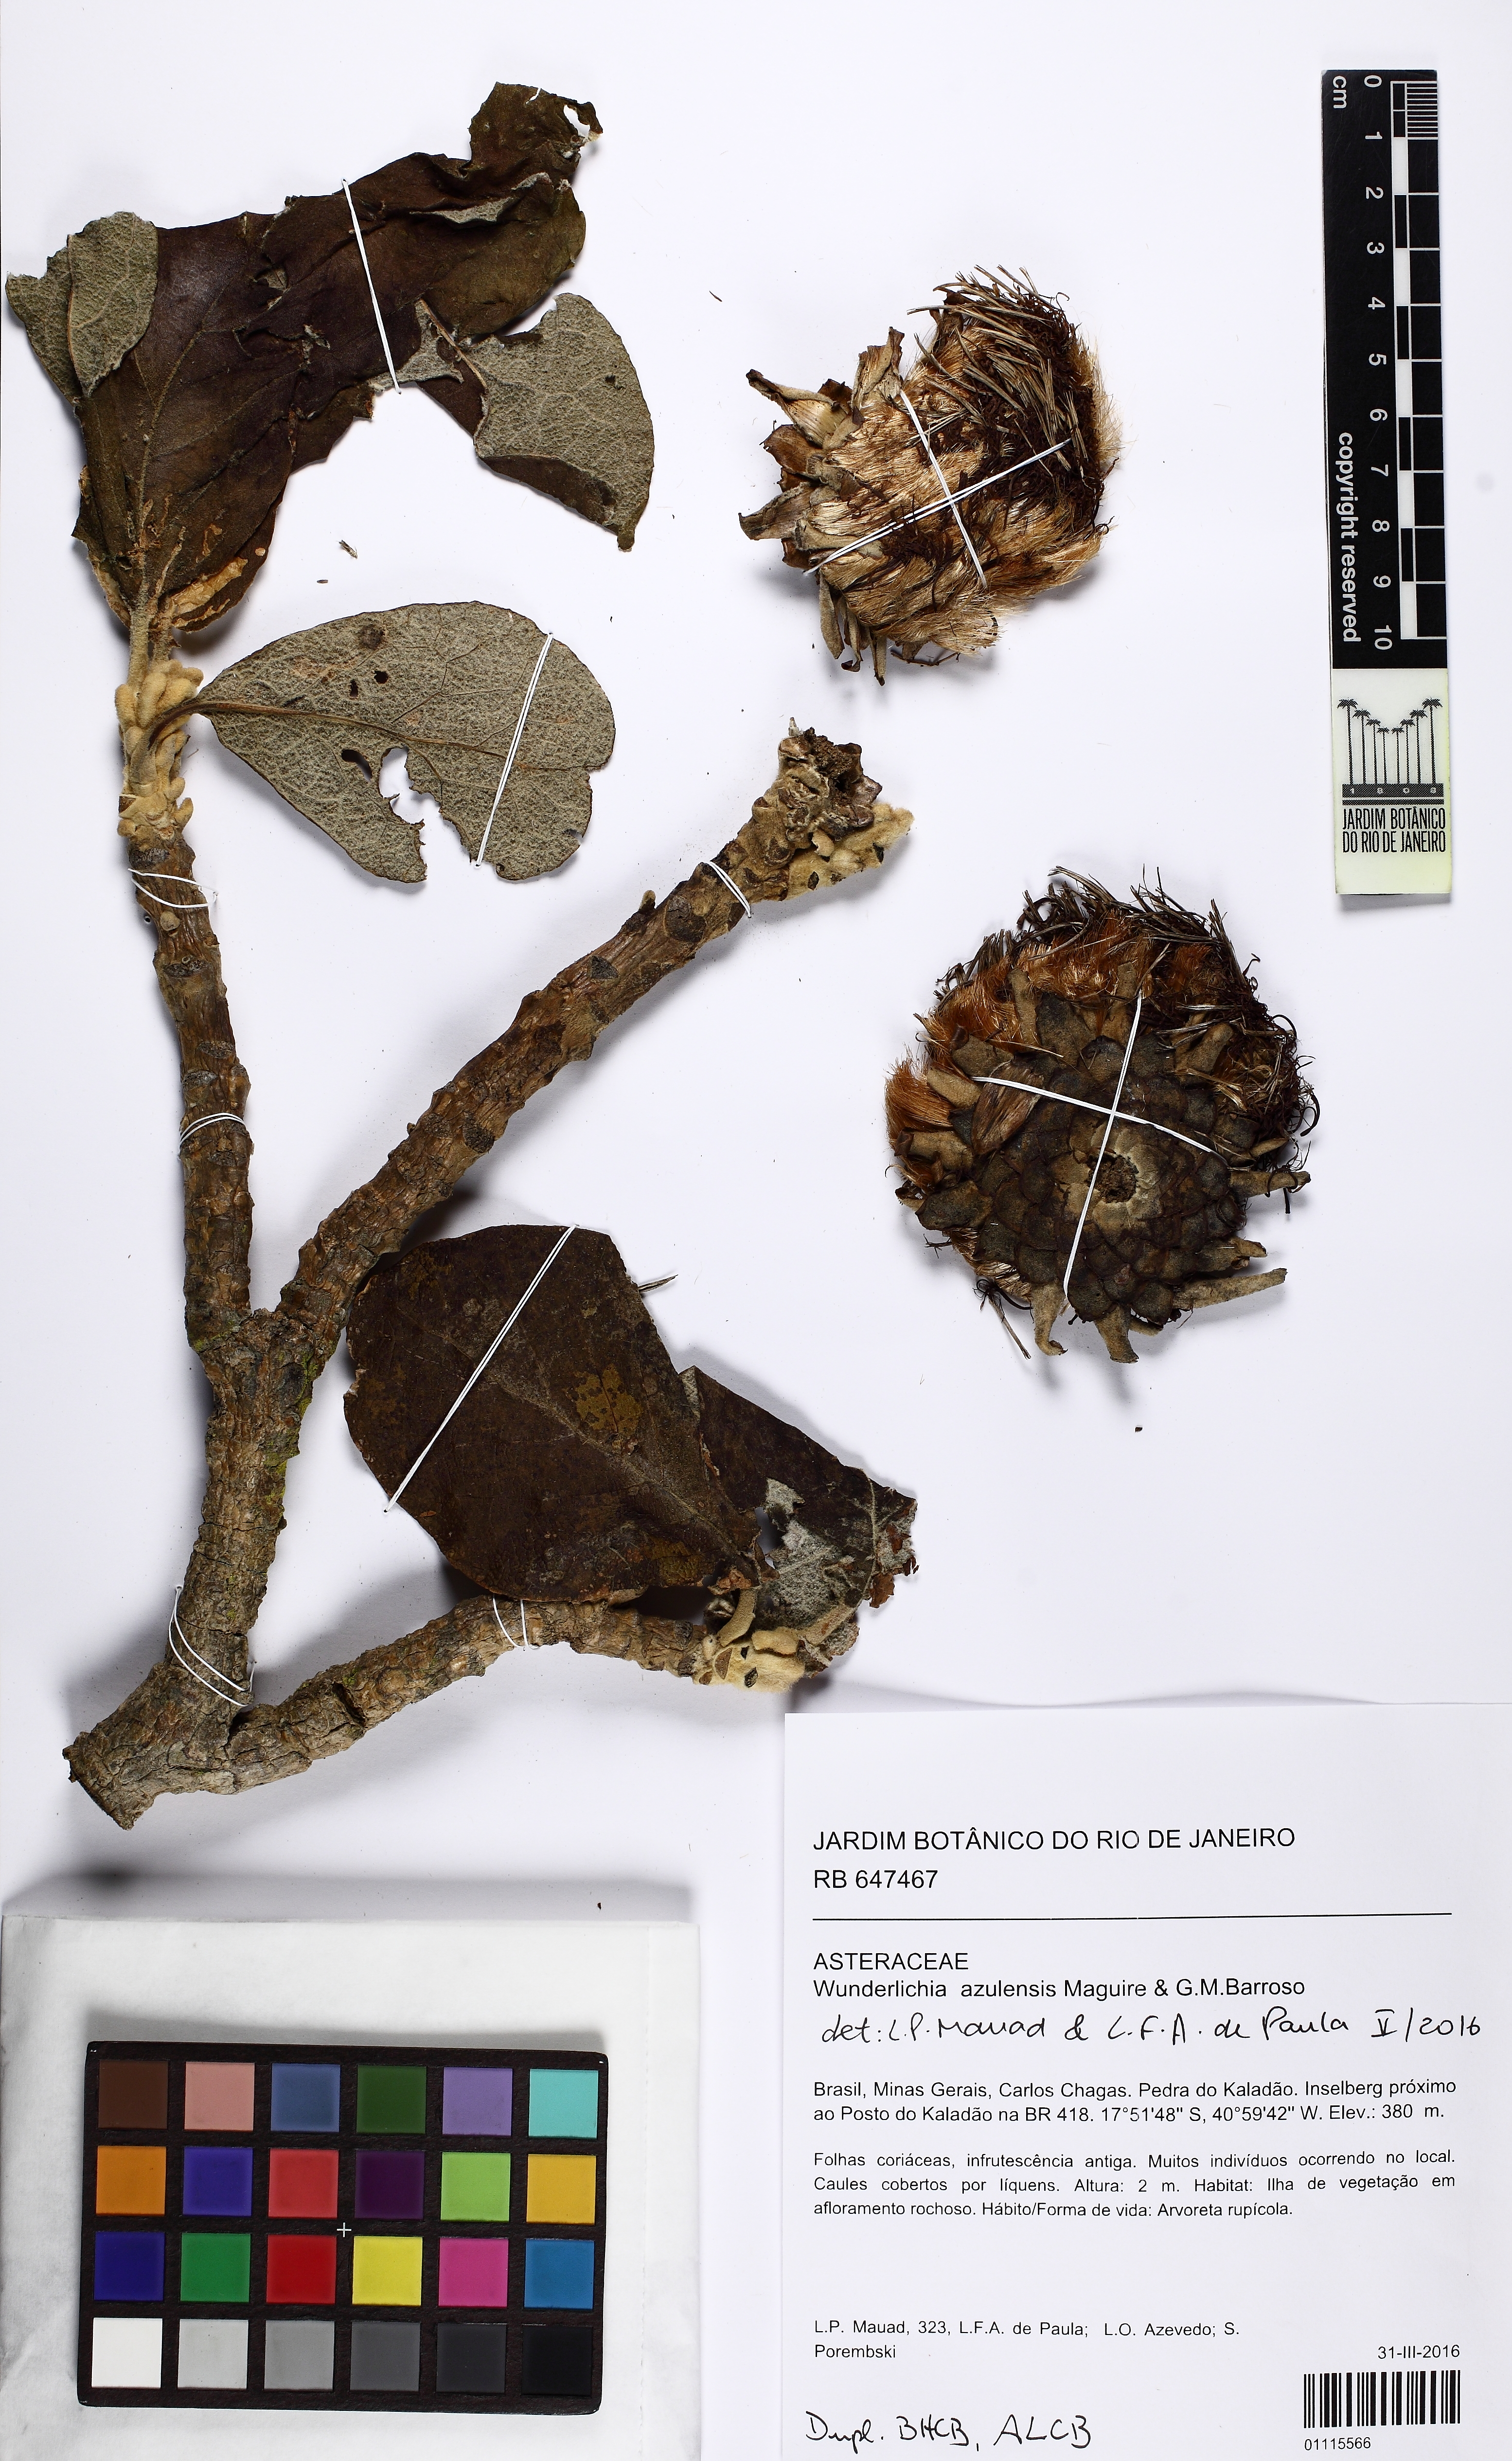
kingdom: Plantae
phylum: Tracheophyta
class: Magnoliopsida
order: Asterales
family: Asteraceae
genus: Wunderlichia
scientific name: Wunderlichia azulensis
